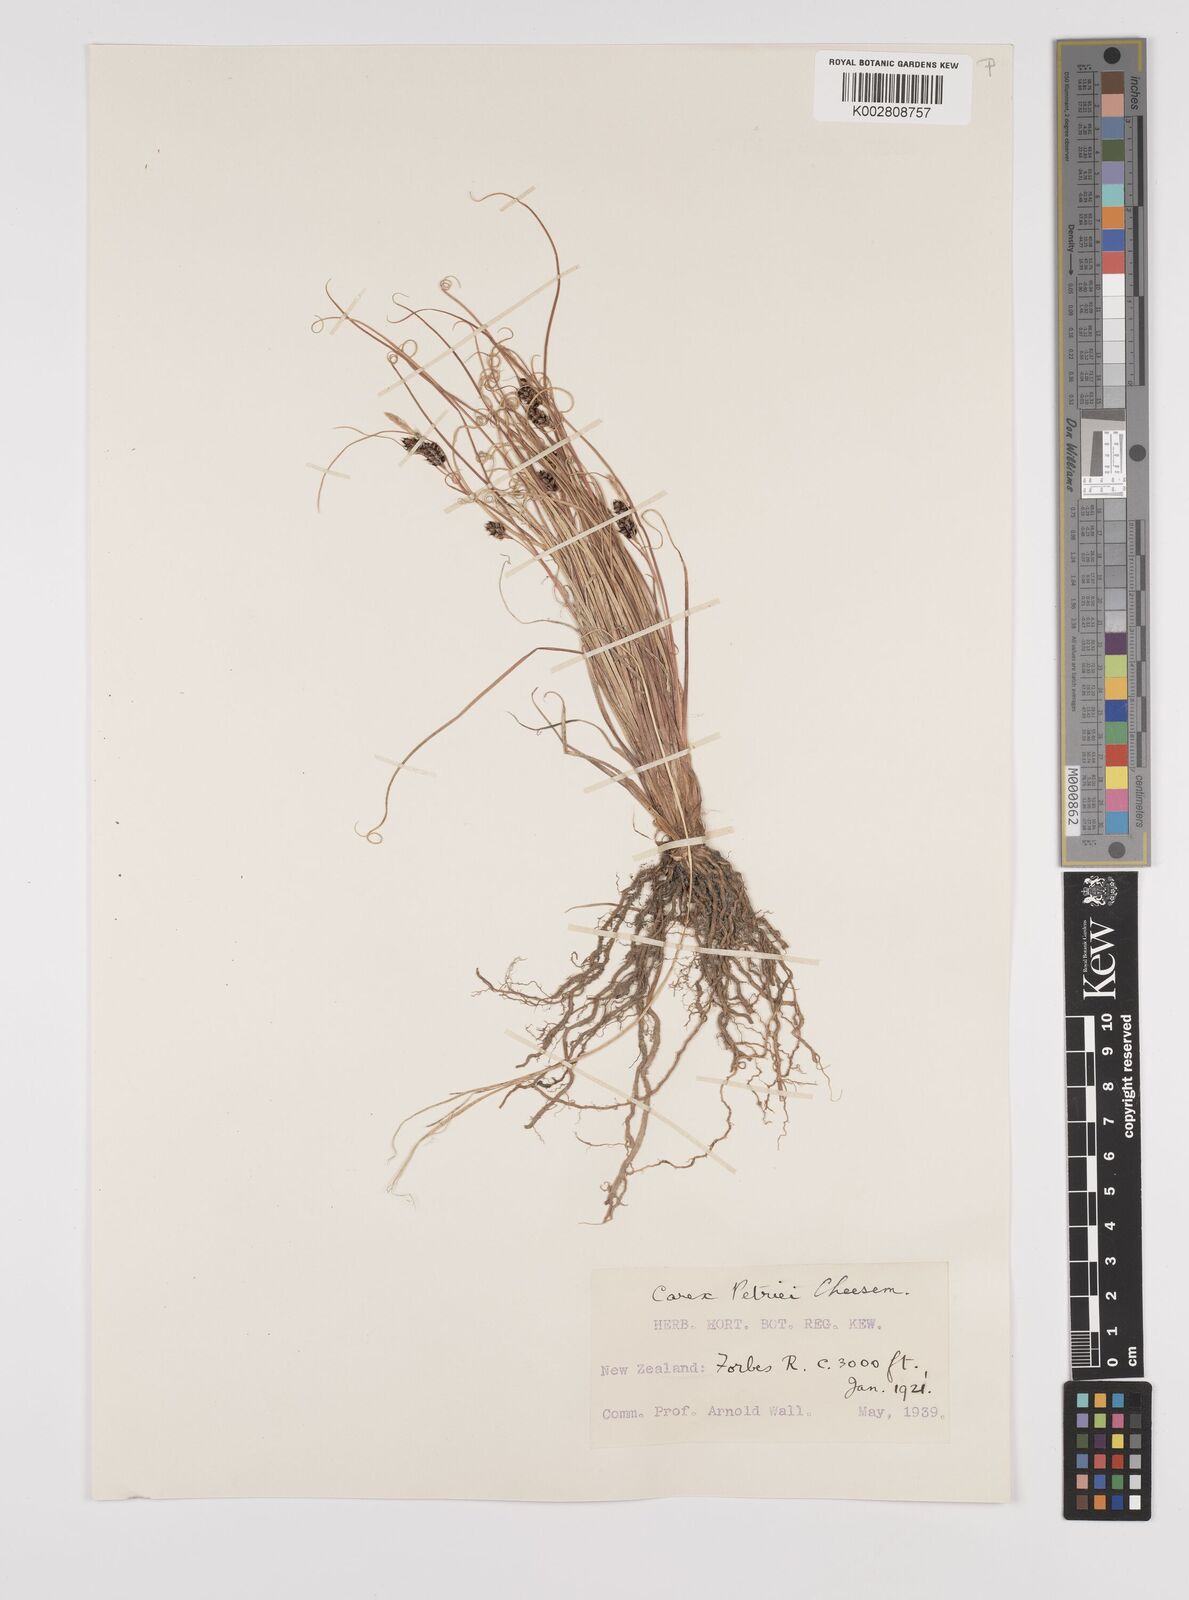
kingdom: Plantae
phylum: Tracheophyta
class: Liliopsida
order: Poales
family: Cyperaceae
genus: Carex
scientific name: Carex petriei
